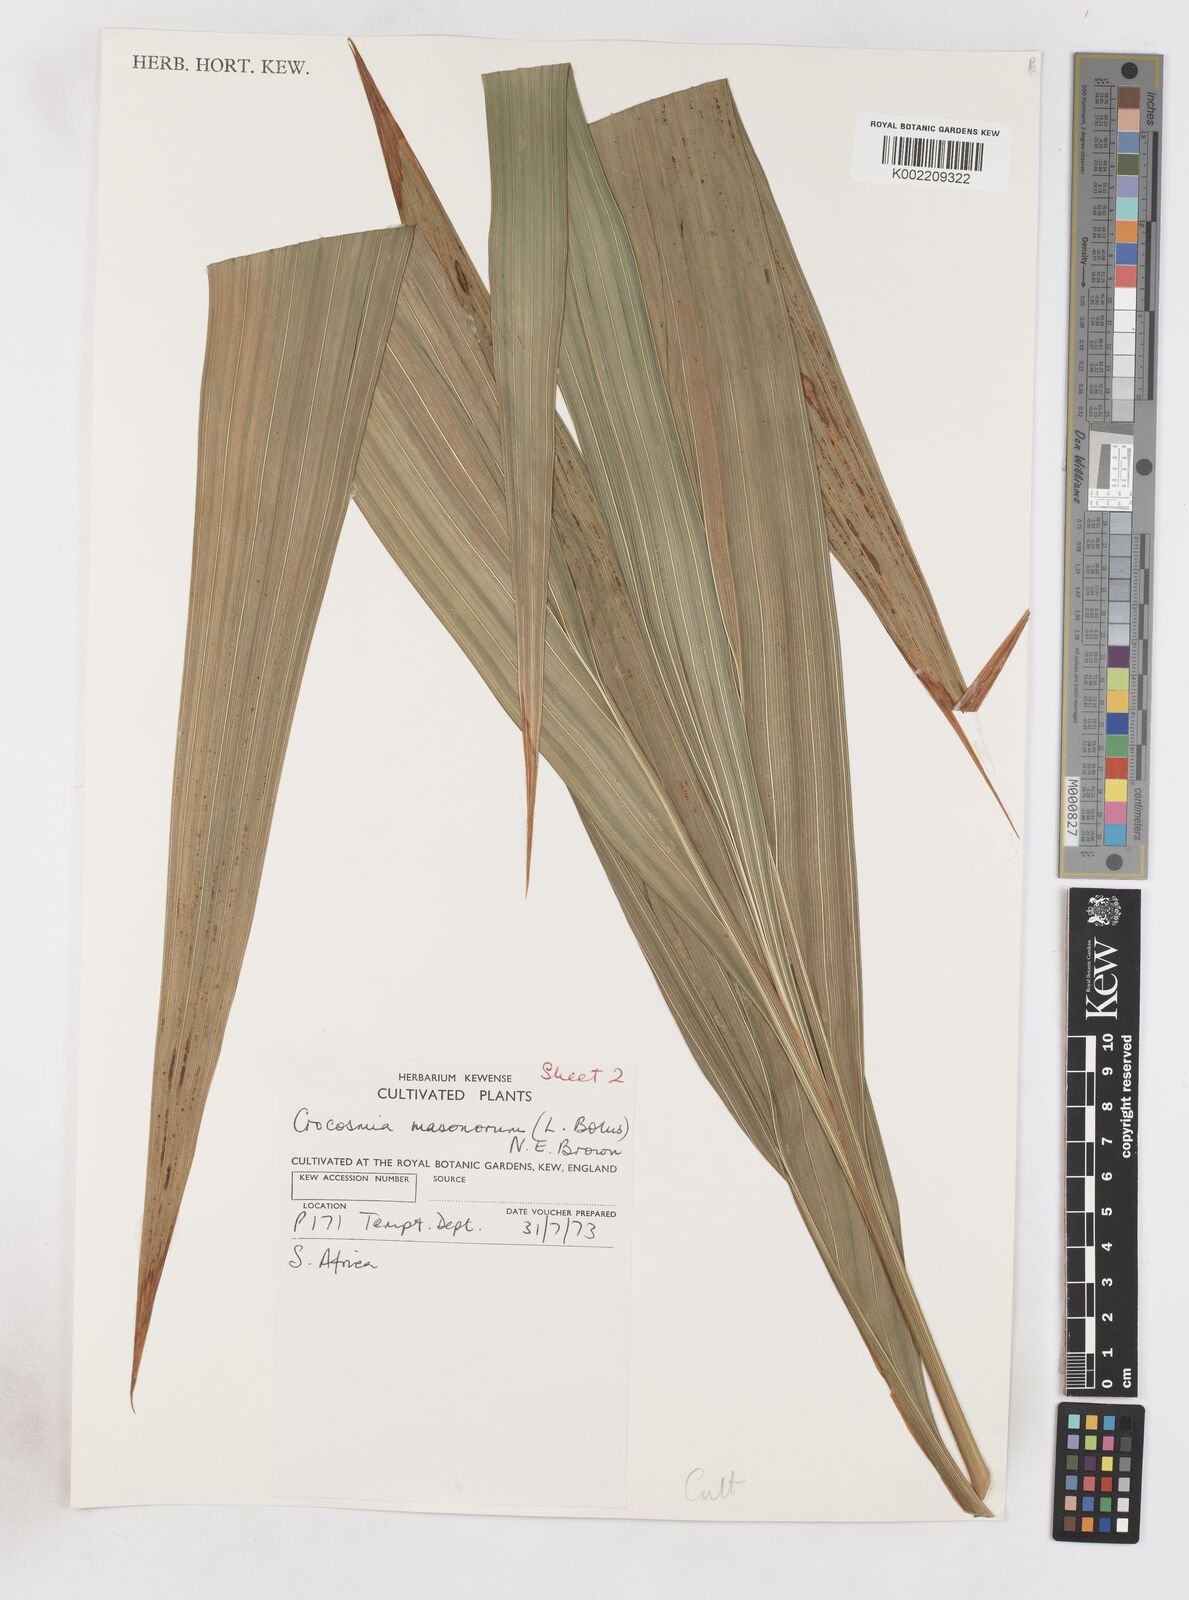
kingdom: Plantae
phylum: Tracheophyta
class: Liliopsida
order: Asparagales
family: Iridaceae
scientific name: Iridaceae
